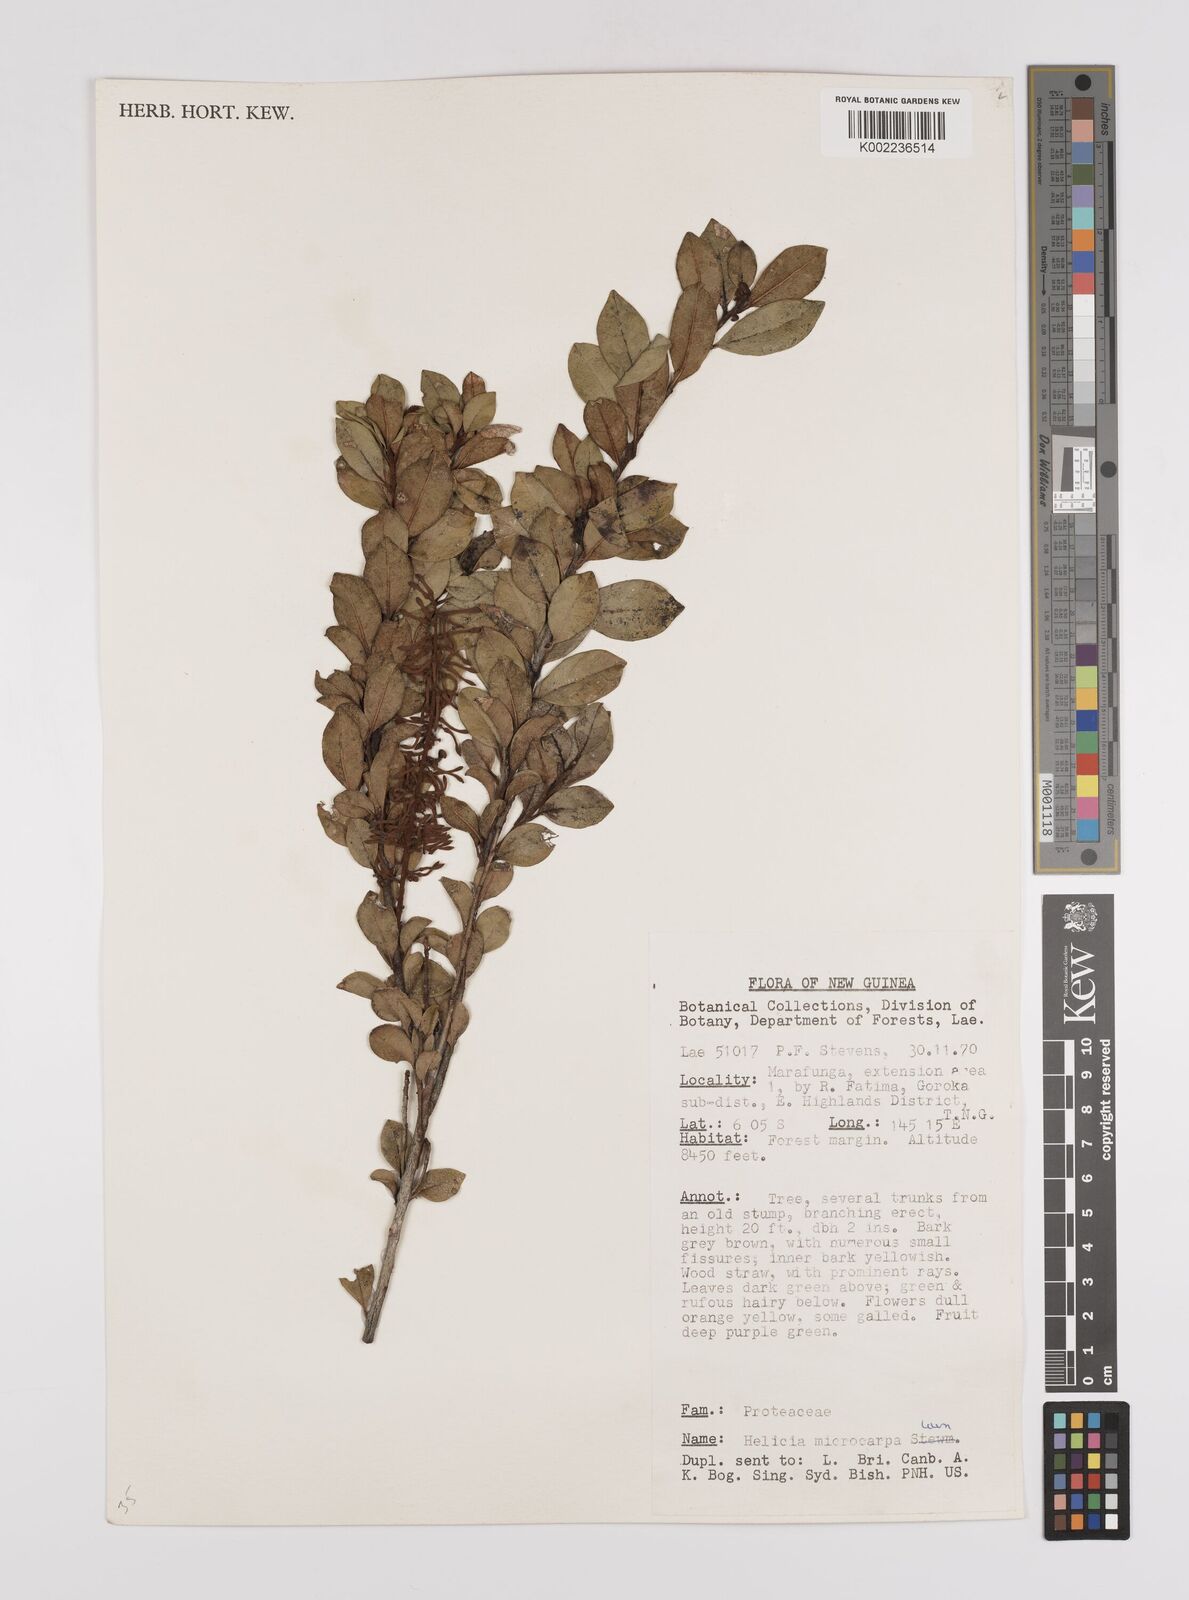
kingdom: Plantae
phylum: Tracheophyta
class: Magnoliopsida
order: Proteales
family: Proteaceae
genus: Helicia
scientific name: Helicia microphylla
